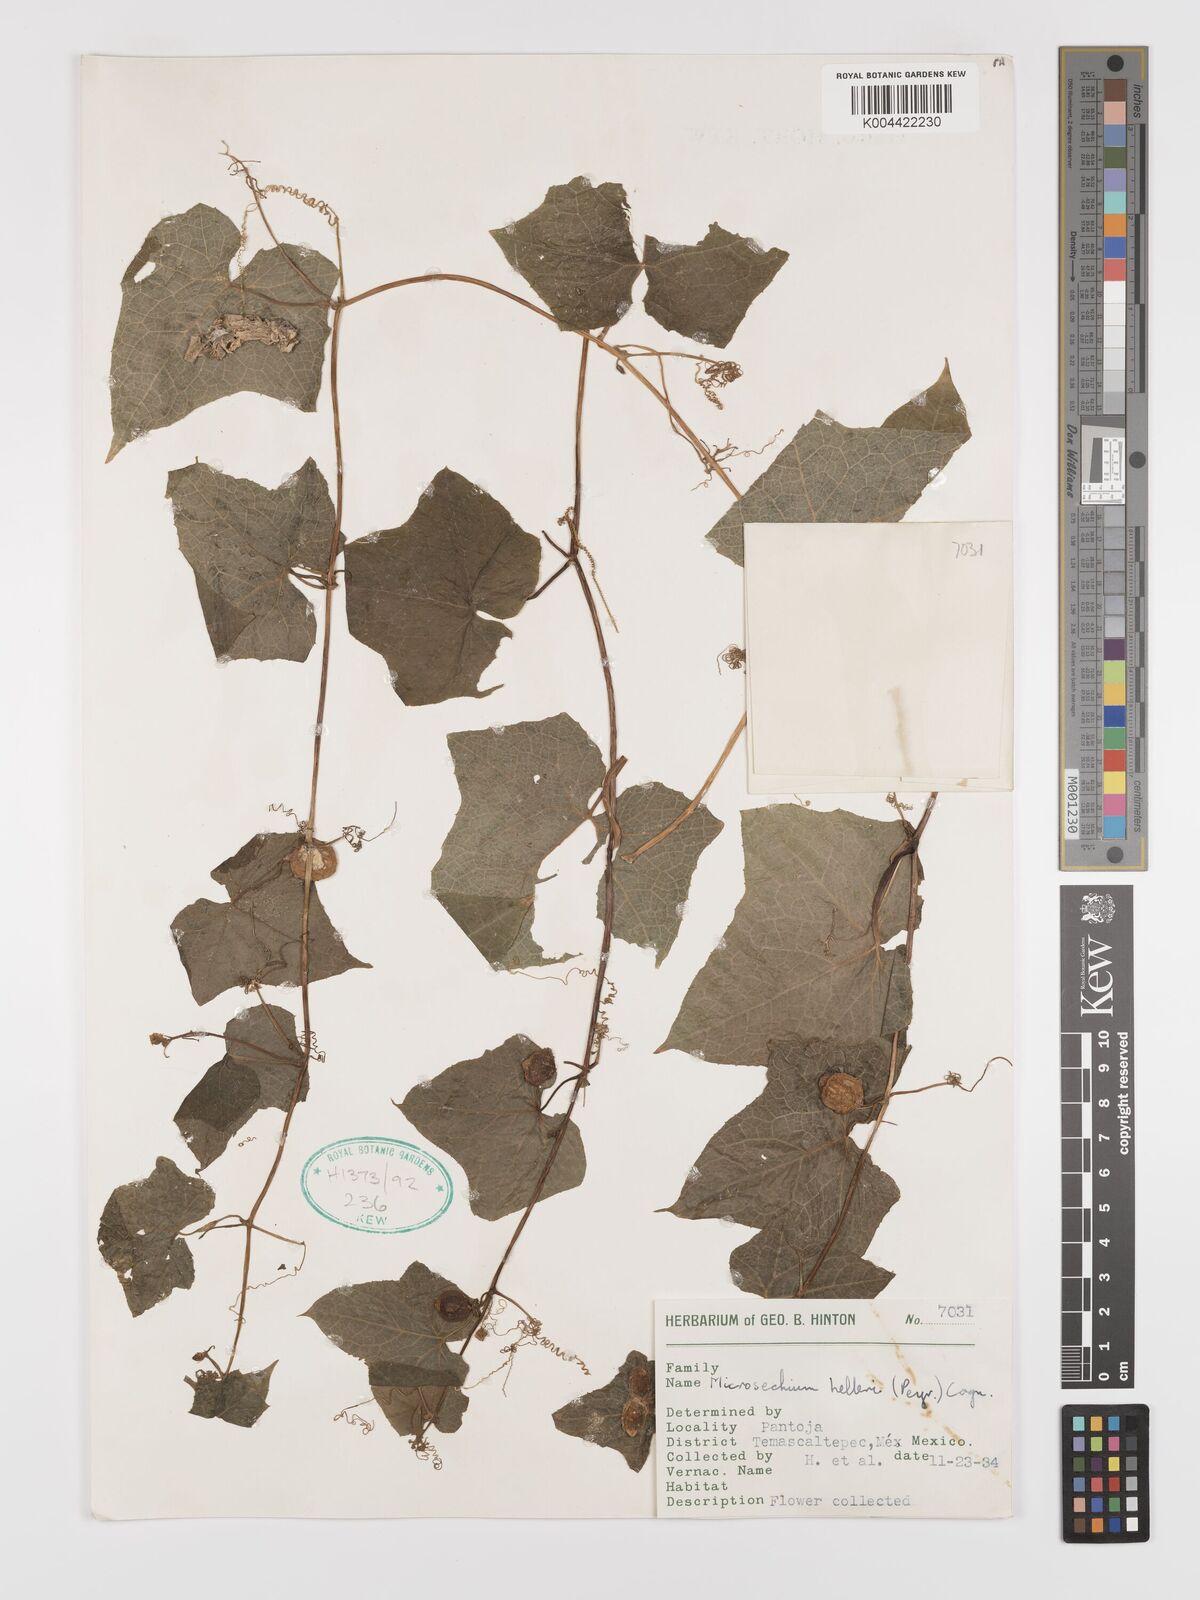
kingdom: Plantae
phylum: Tracheophyta
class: Magnoliopsida
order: Cucurbitales
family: Cucurbitaceae
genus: Microsechium
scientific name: Microsechium palmatum
